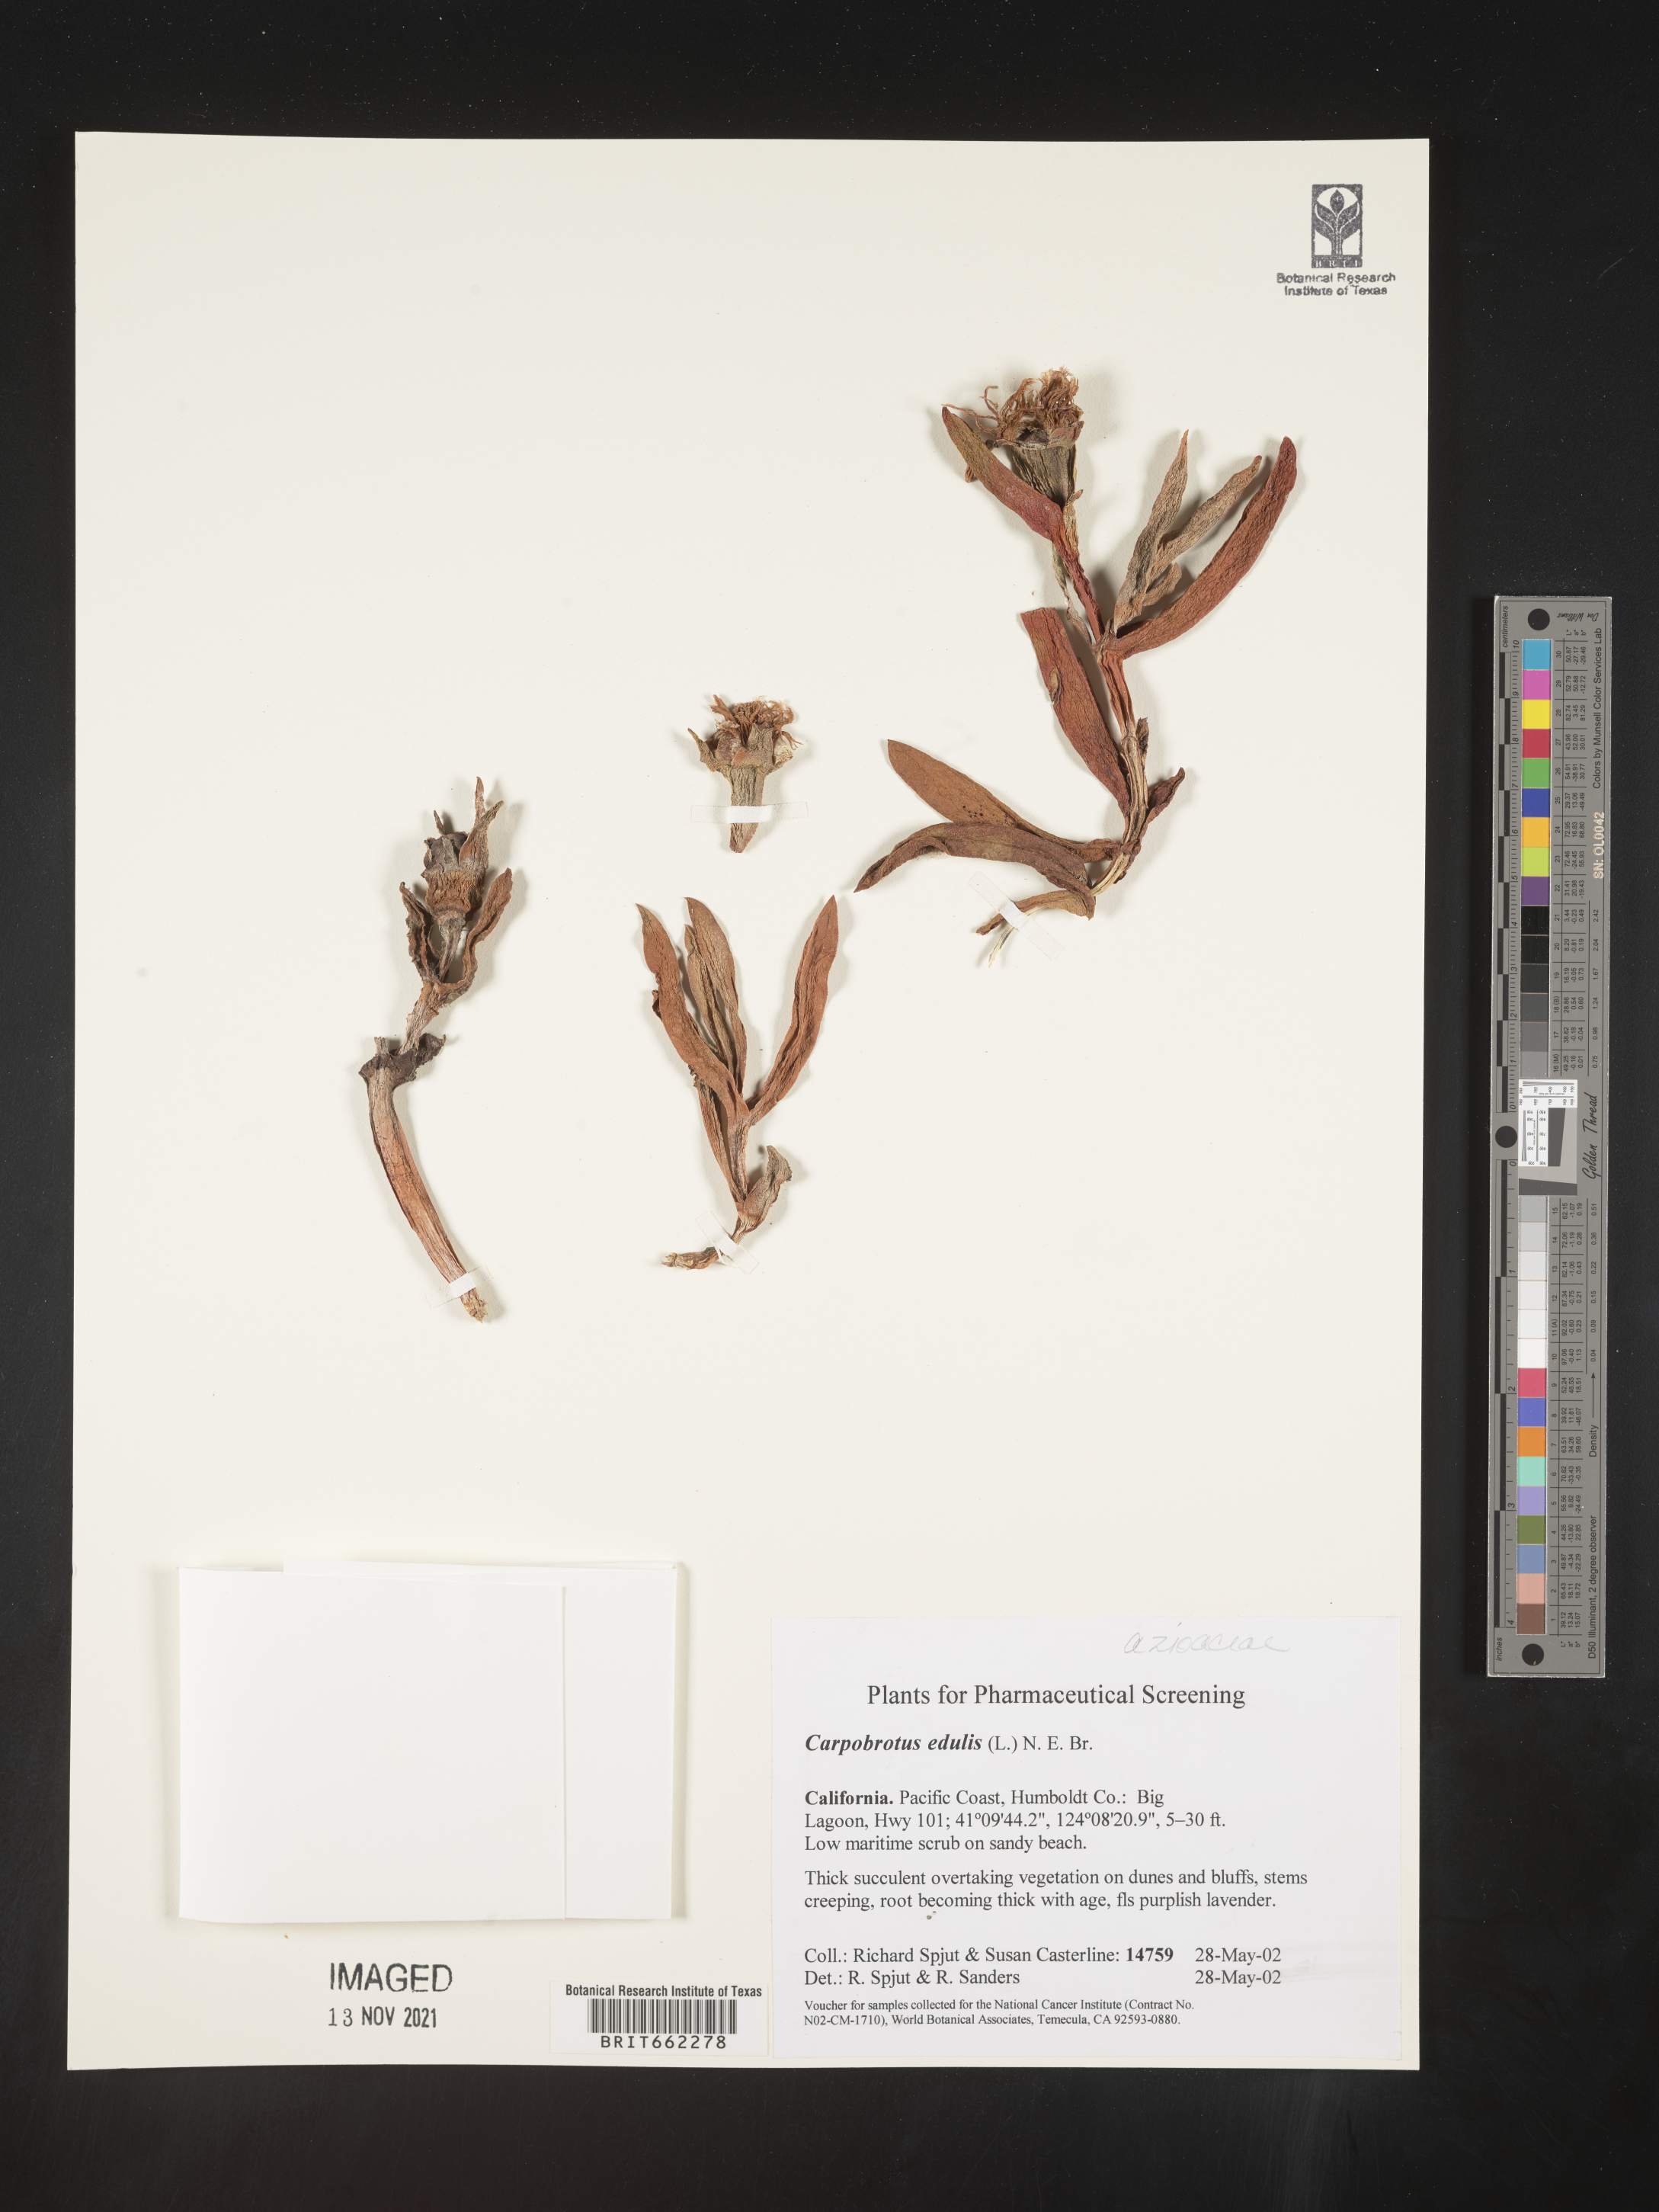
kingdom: Plantae
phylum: Tracheophyta
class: Magnoliopsida
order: Caryophyllales
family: Aizoaceae
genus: Carpobrotus
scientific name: Carpobrotus
